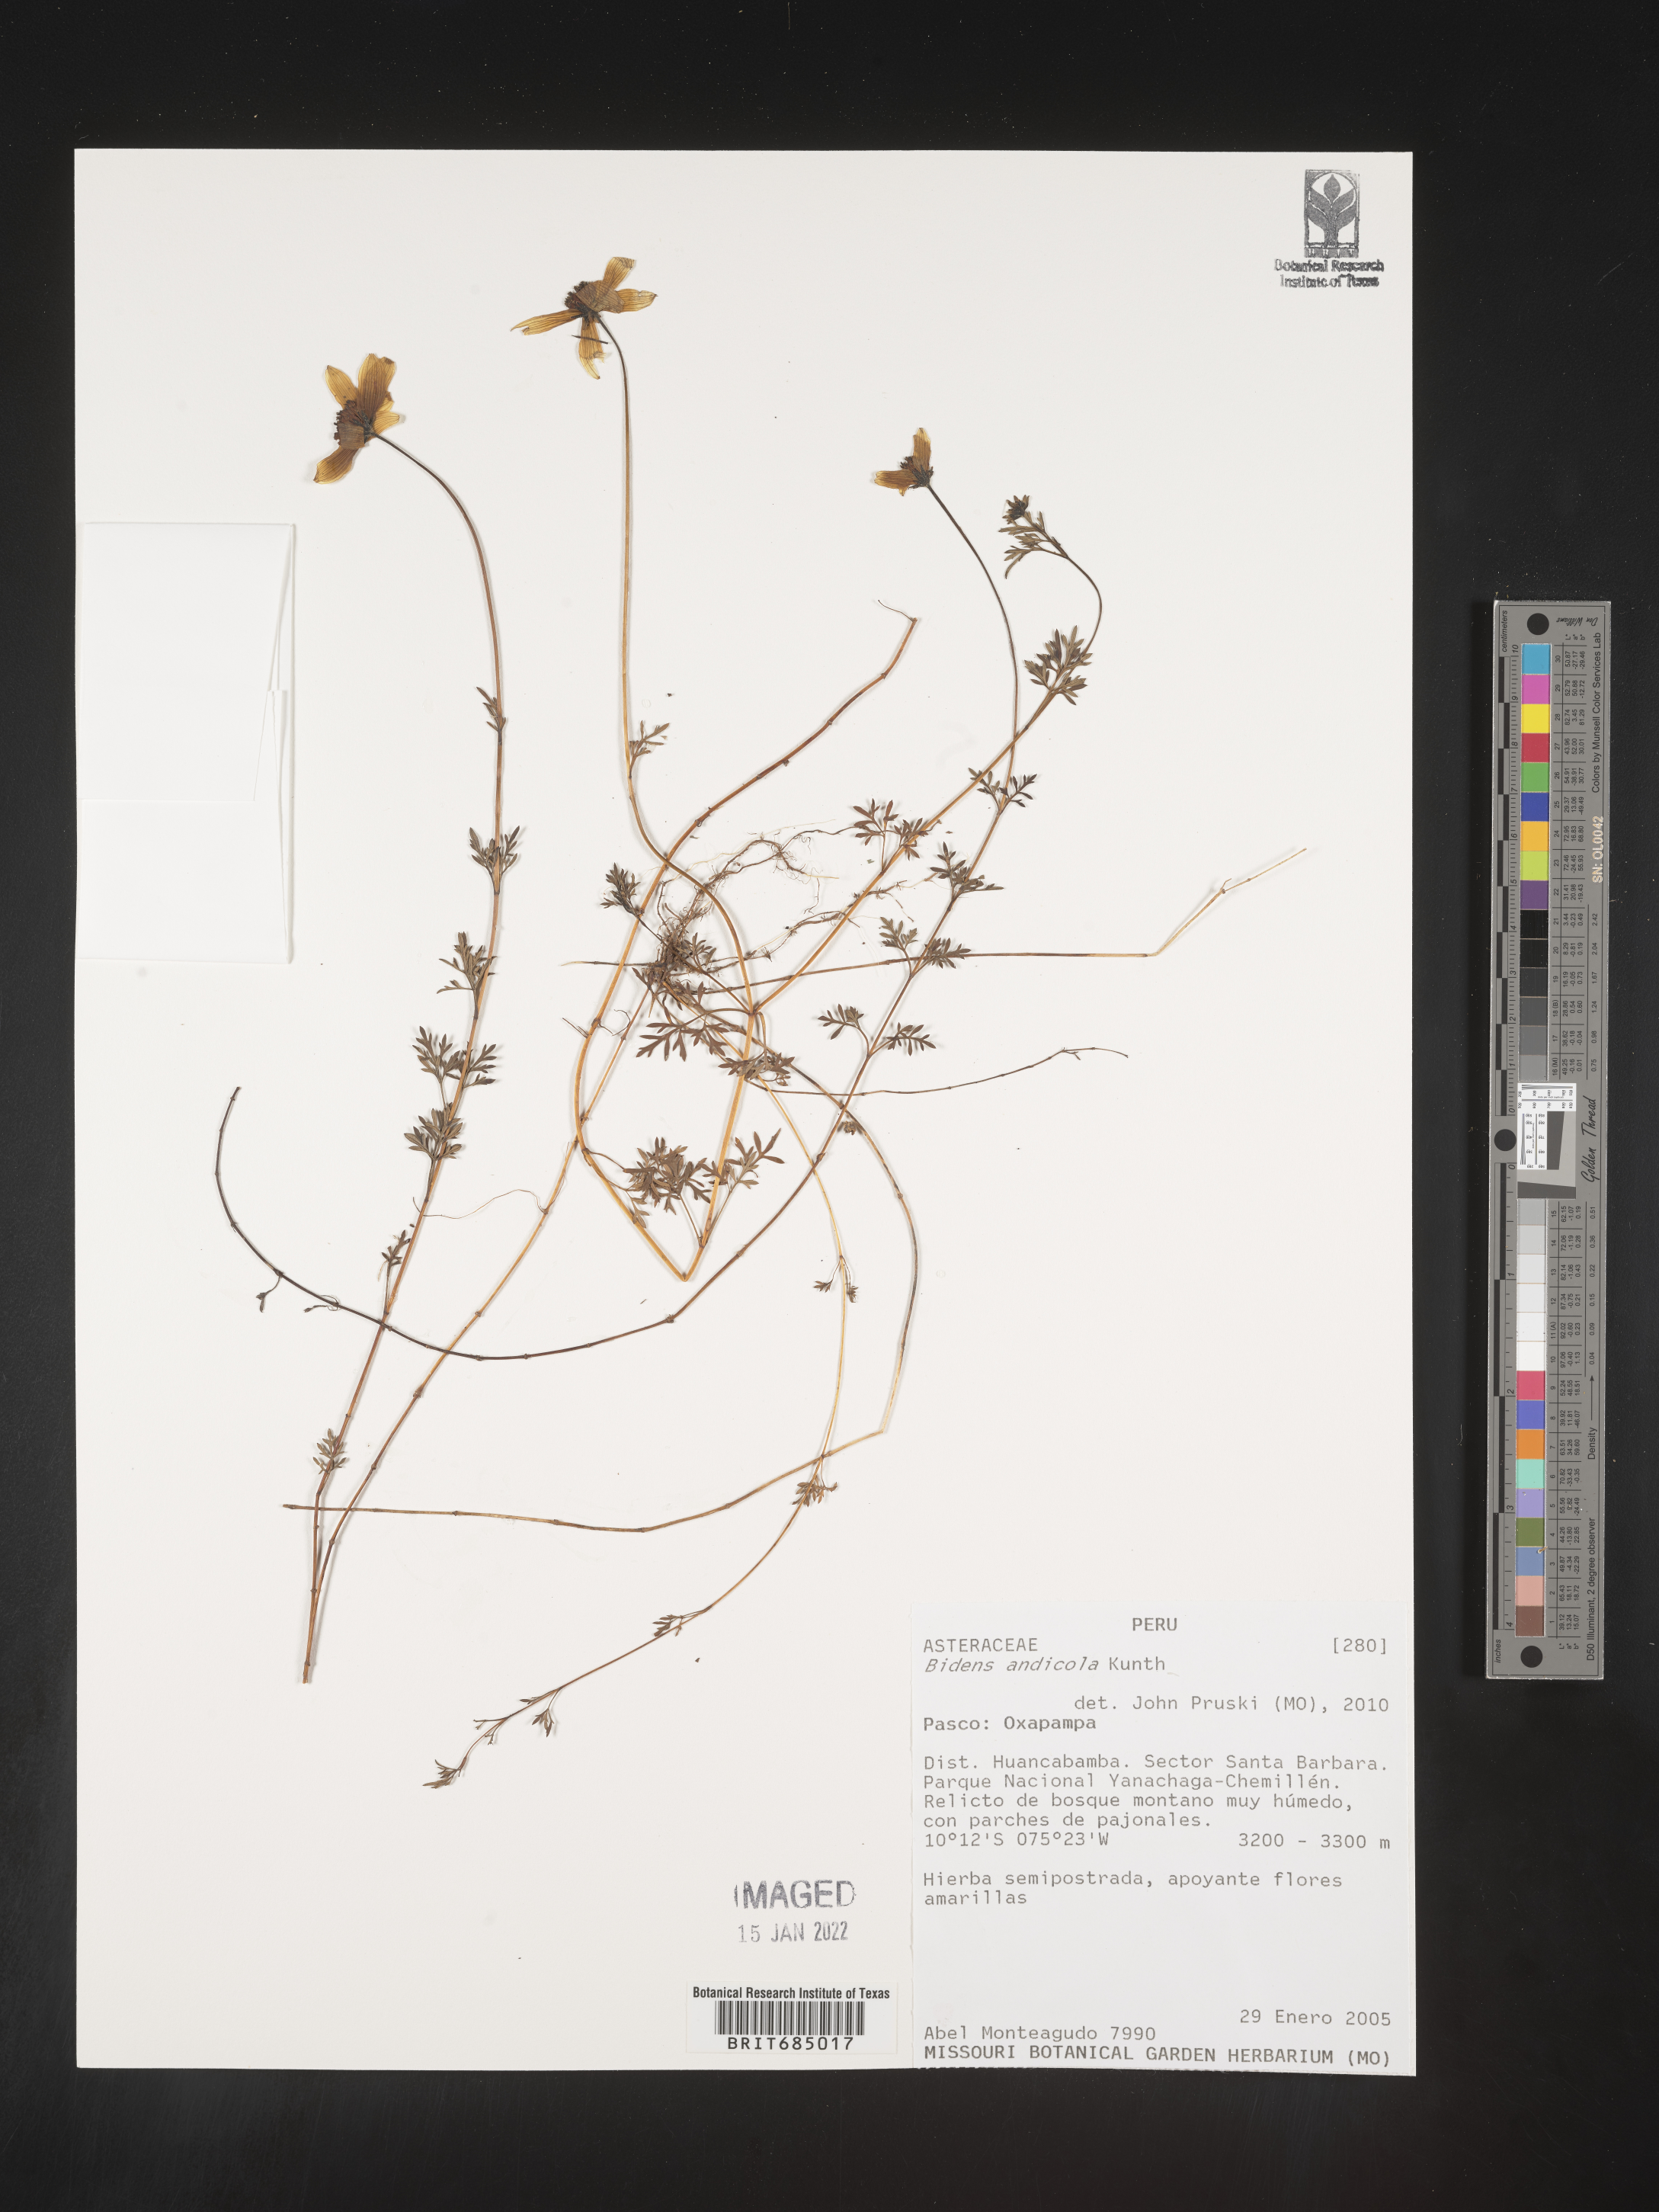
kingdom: Plantae
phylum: Tracheophyta
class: Magnoliopsida
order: Asterales
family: Asteraceae
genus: Bidens
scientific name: Bidens
